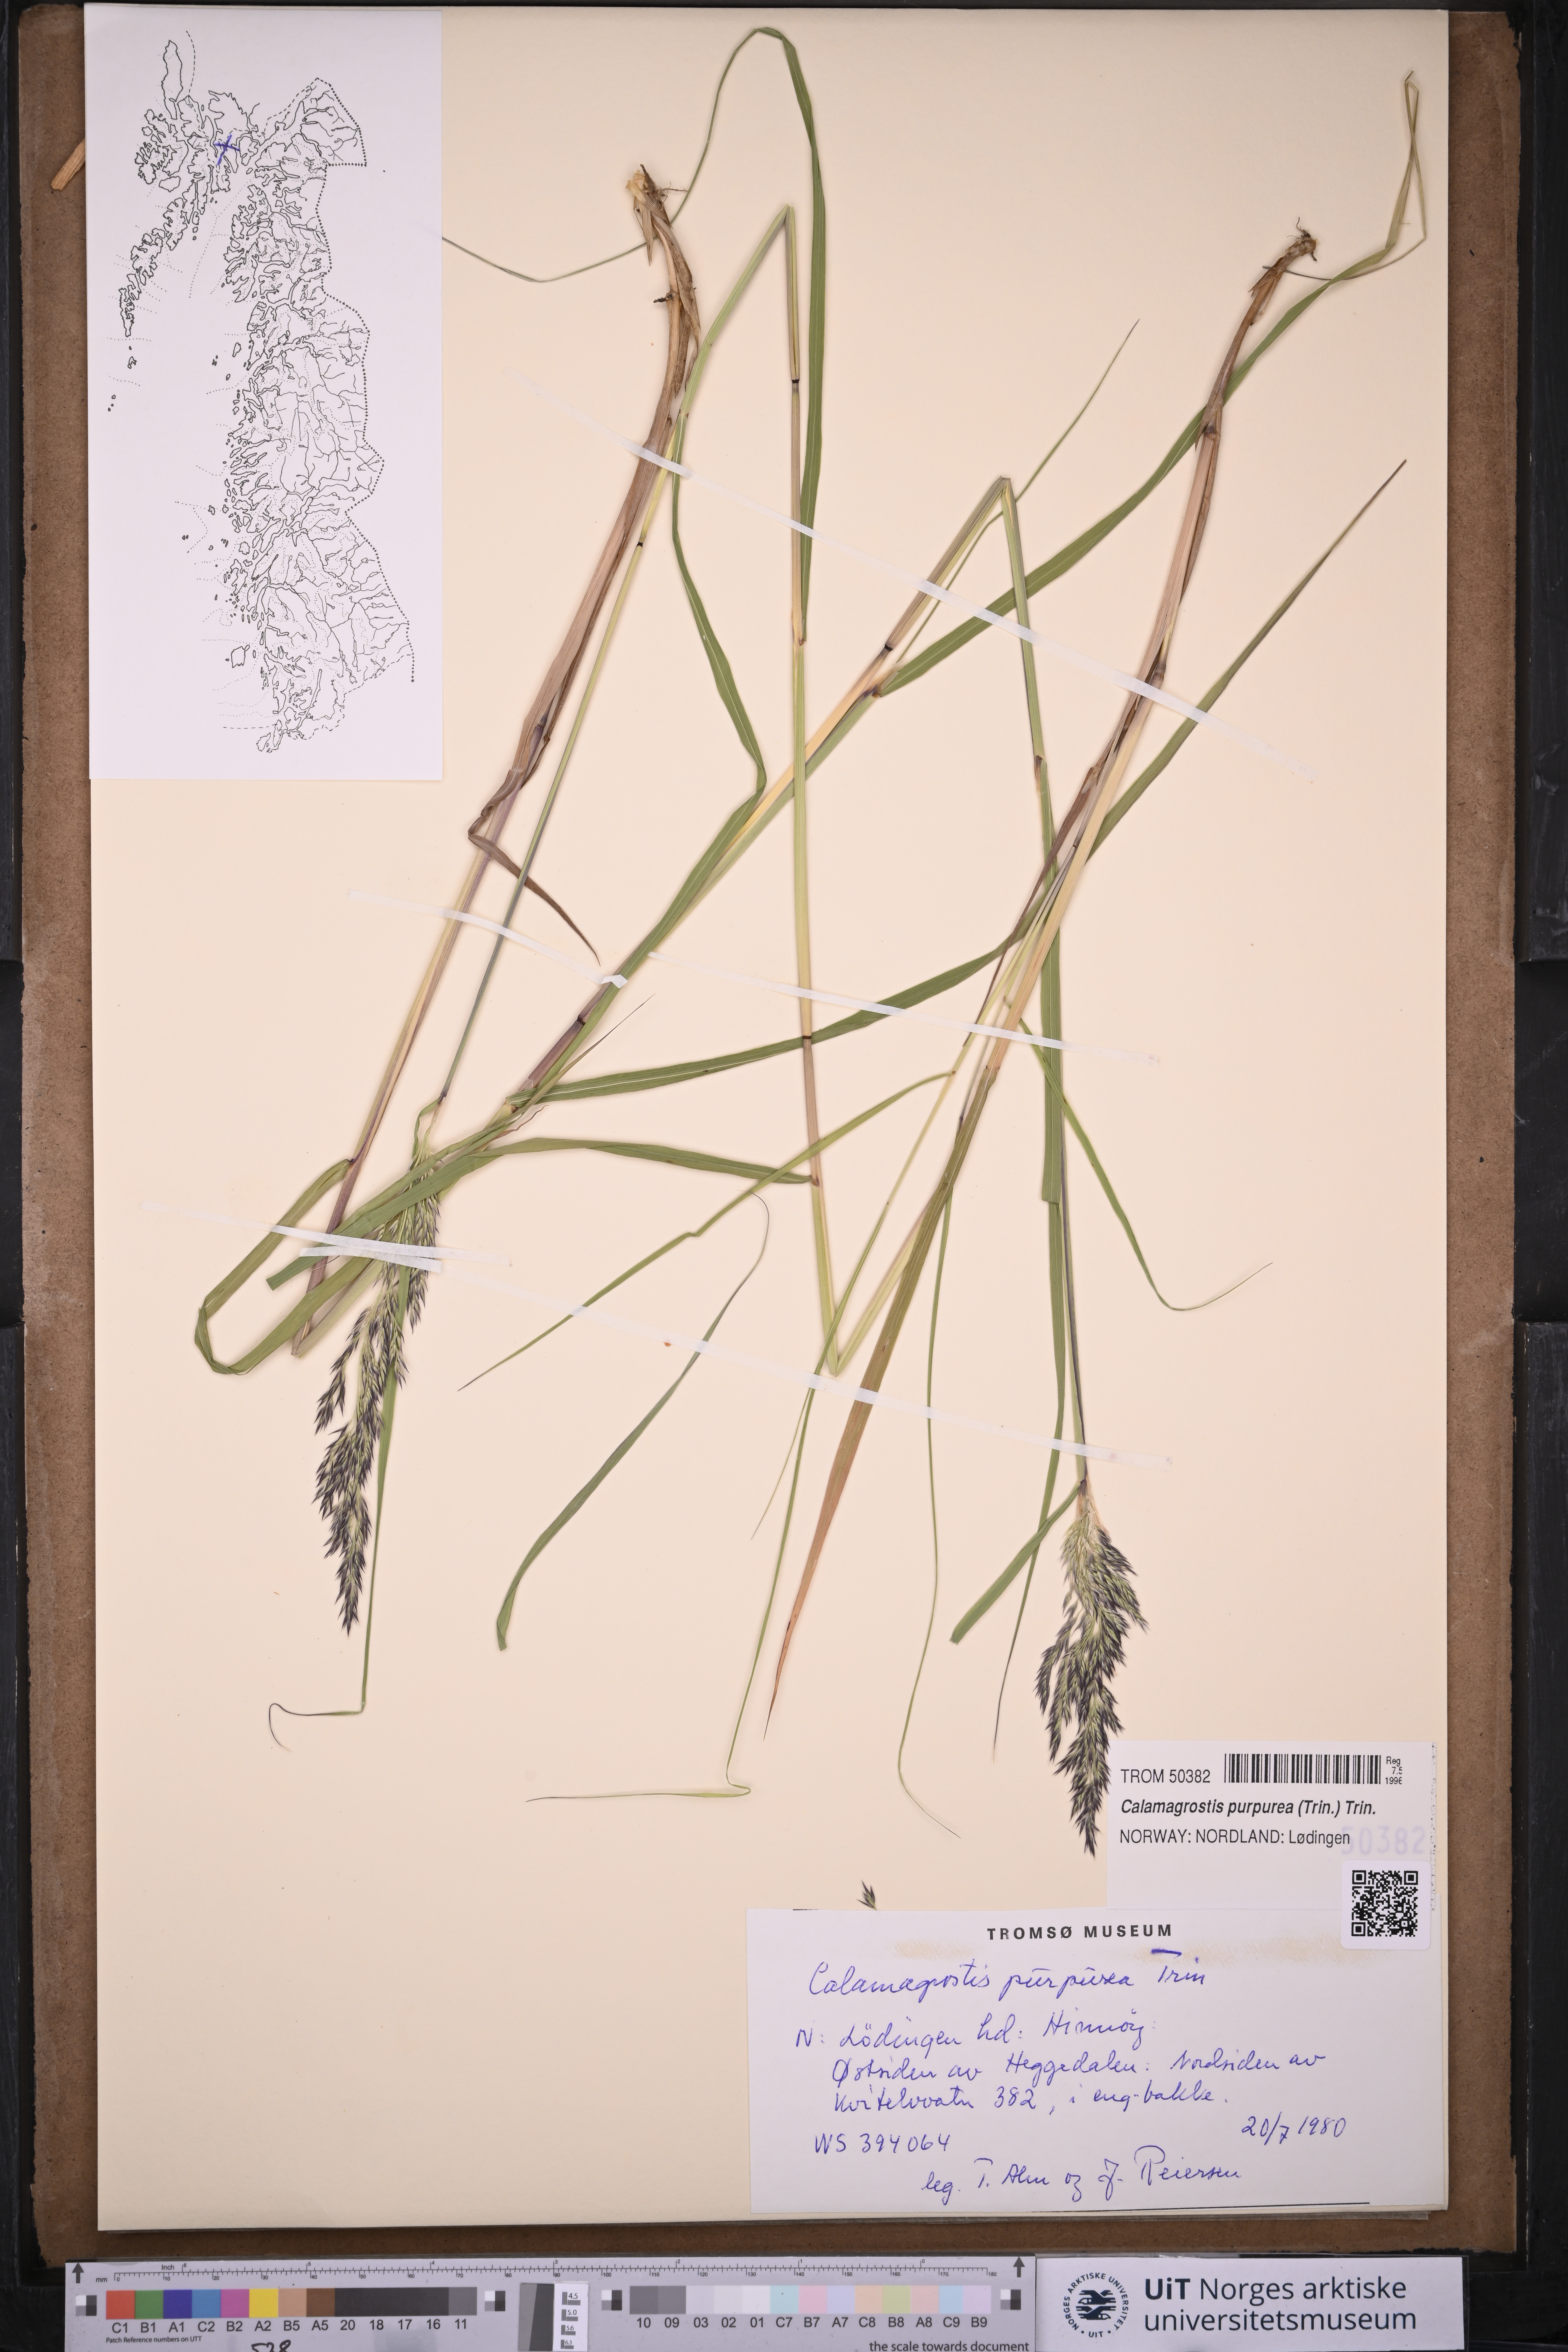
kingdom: Plantae
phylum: Tracheophyta
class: Liliopsida
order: Poales
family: Poaceae
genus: Calamagrostis
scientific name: Calamagrostis purpurea
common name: Scandinavian small-reed
